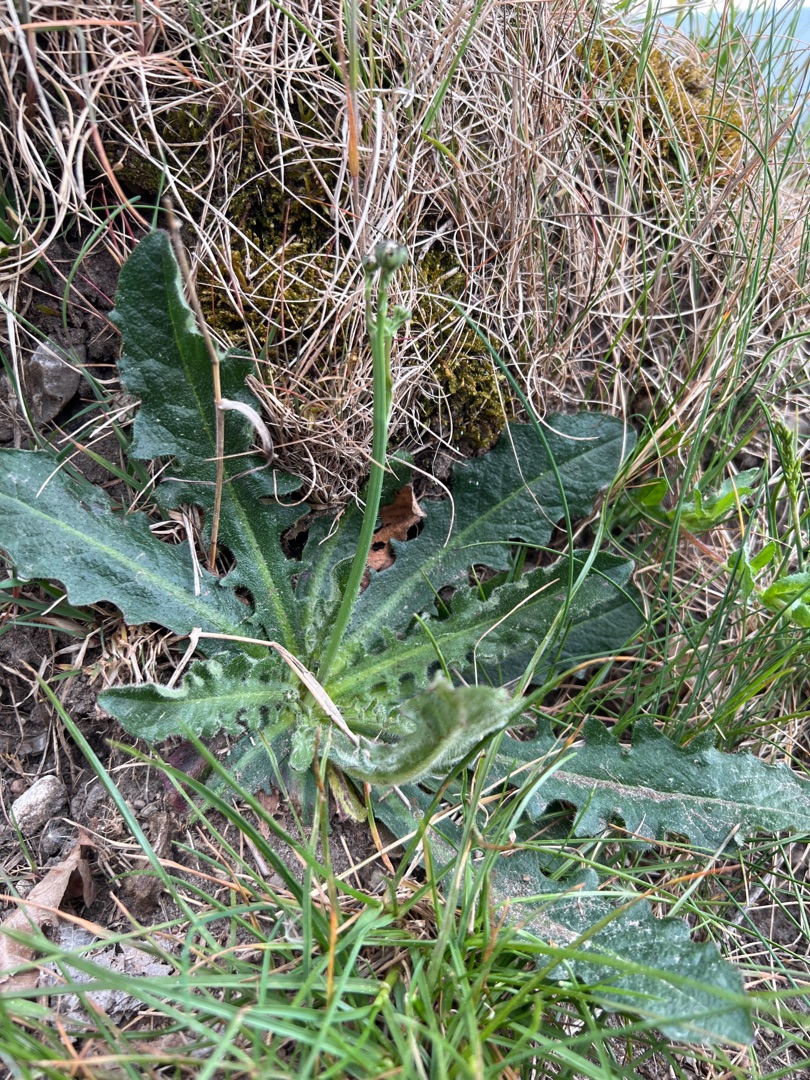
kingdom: Plantae
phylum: Tracheophyta
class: Magnoliopsida
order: Asterales
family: Asteraceae
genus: Hypochaeris
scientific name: Hypochaeris radicata
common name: Almindelig kongepen
